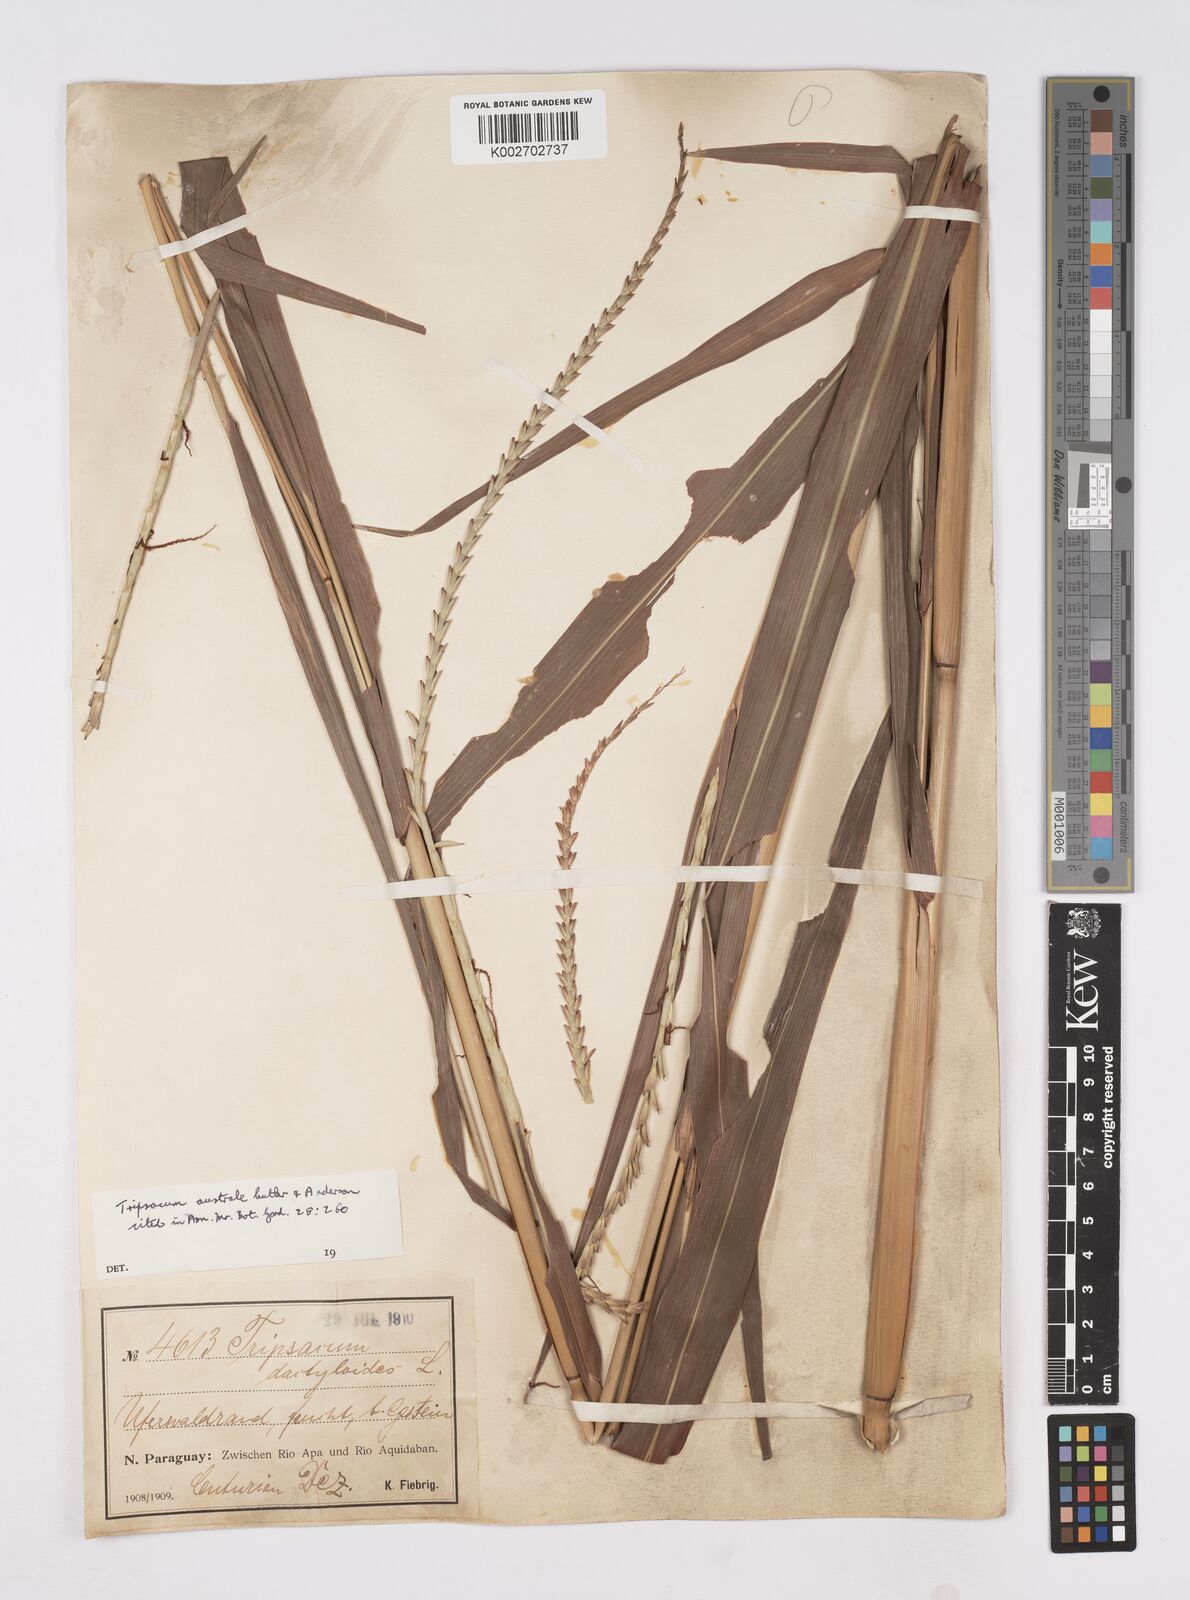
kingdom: Plantae
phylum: Tracheophyta
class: Liliopsida
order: Poales
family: Poaceae
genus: Tripsacum
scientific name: Tripsacum australe
